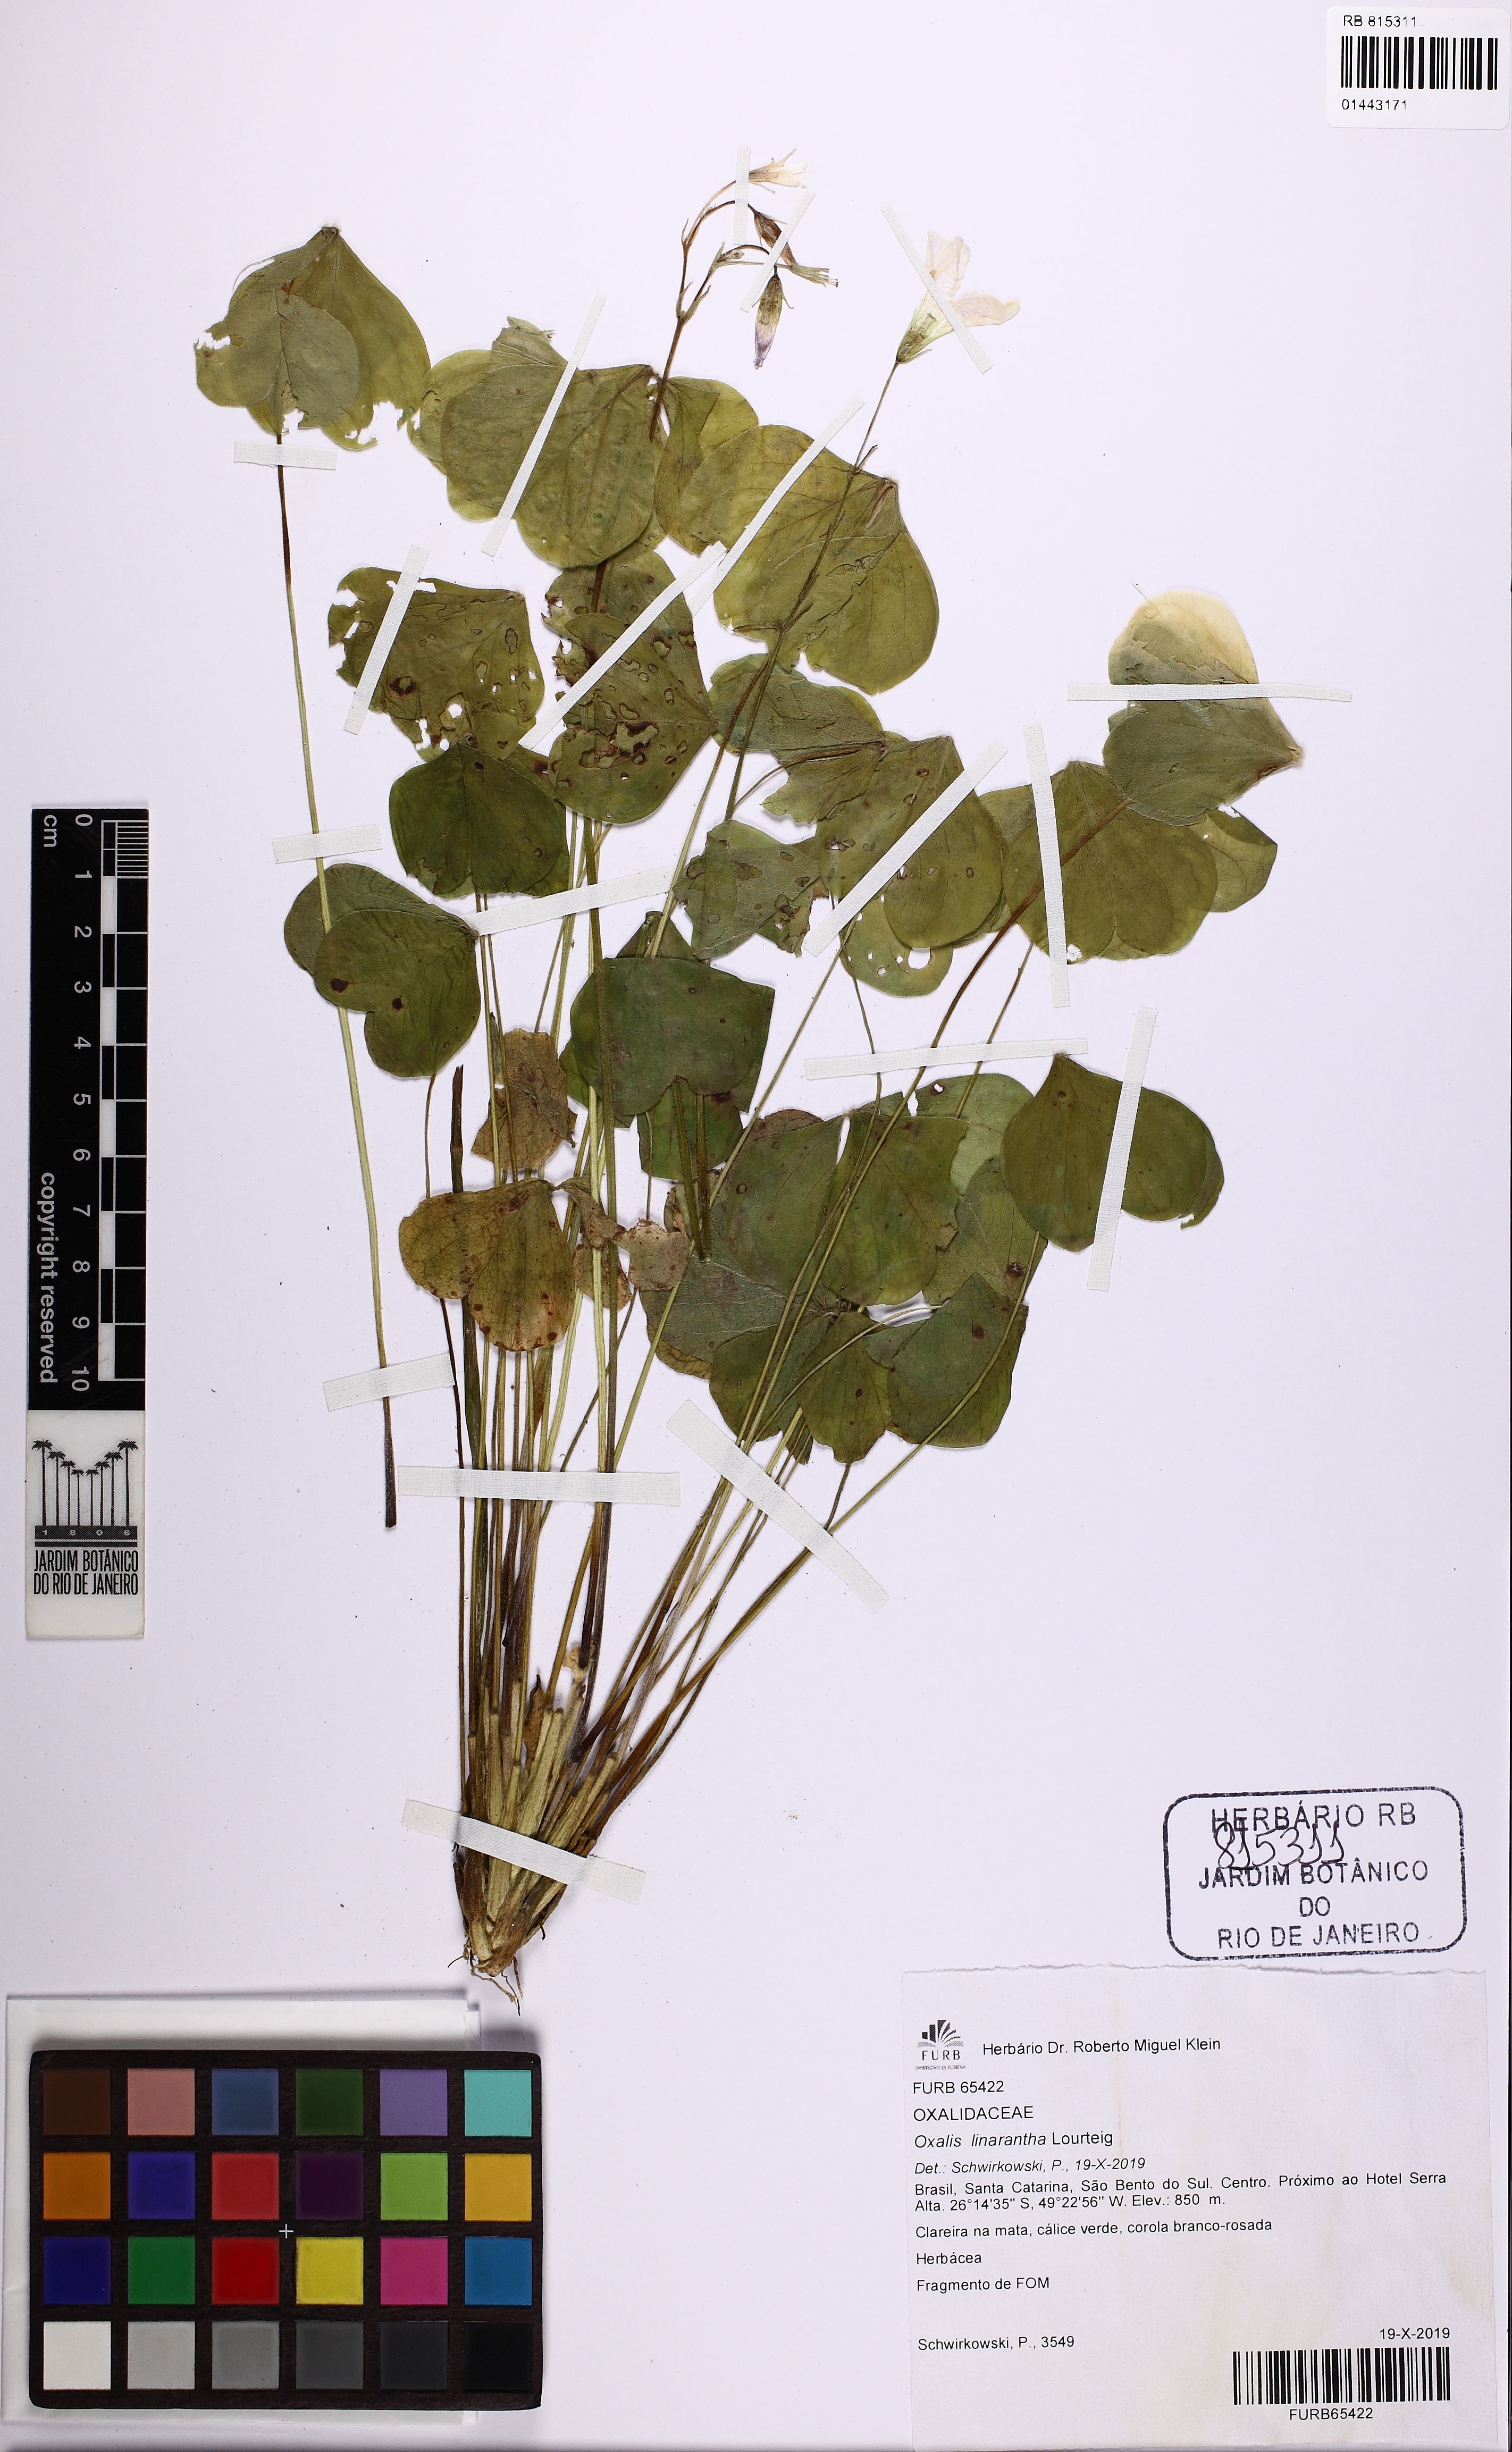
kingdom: Plantae
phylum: Tracheophyta
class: Magnoliopsida
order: Oxalidales
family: Oxalidaceae
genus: Oxalis
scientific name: Oxalis linarantha
